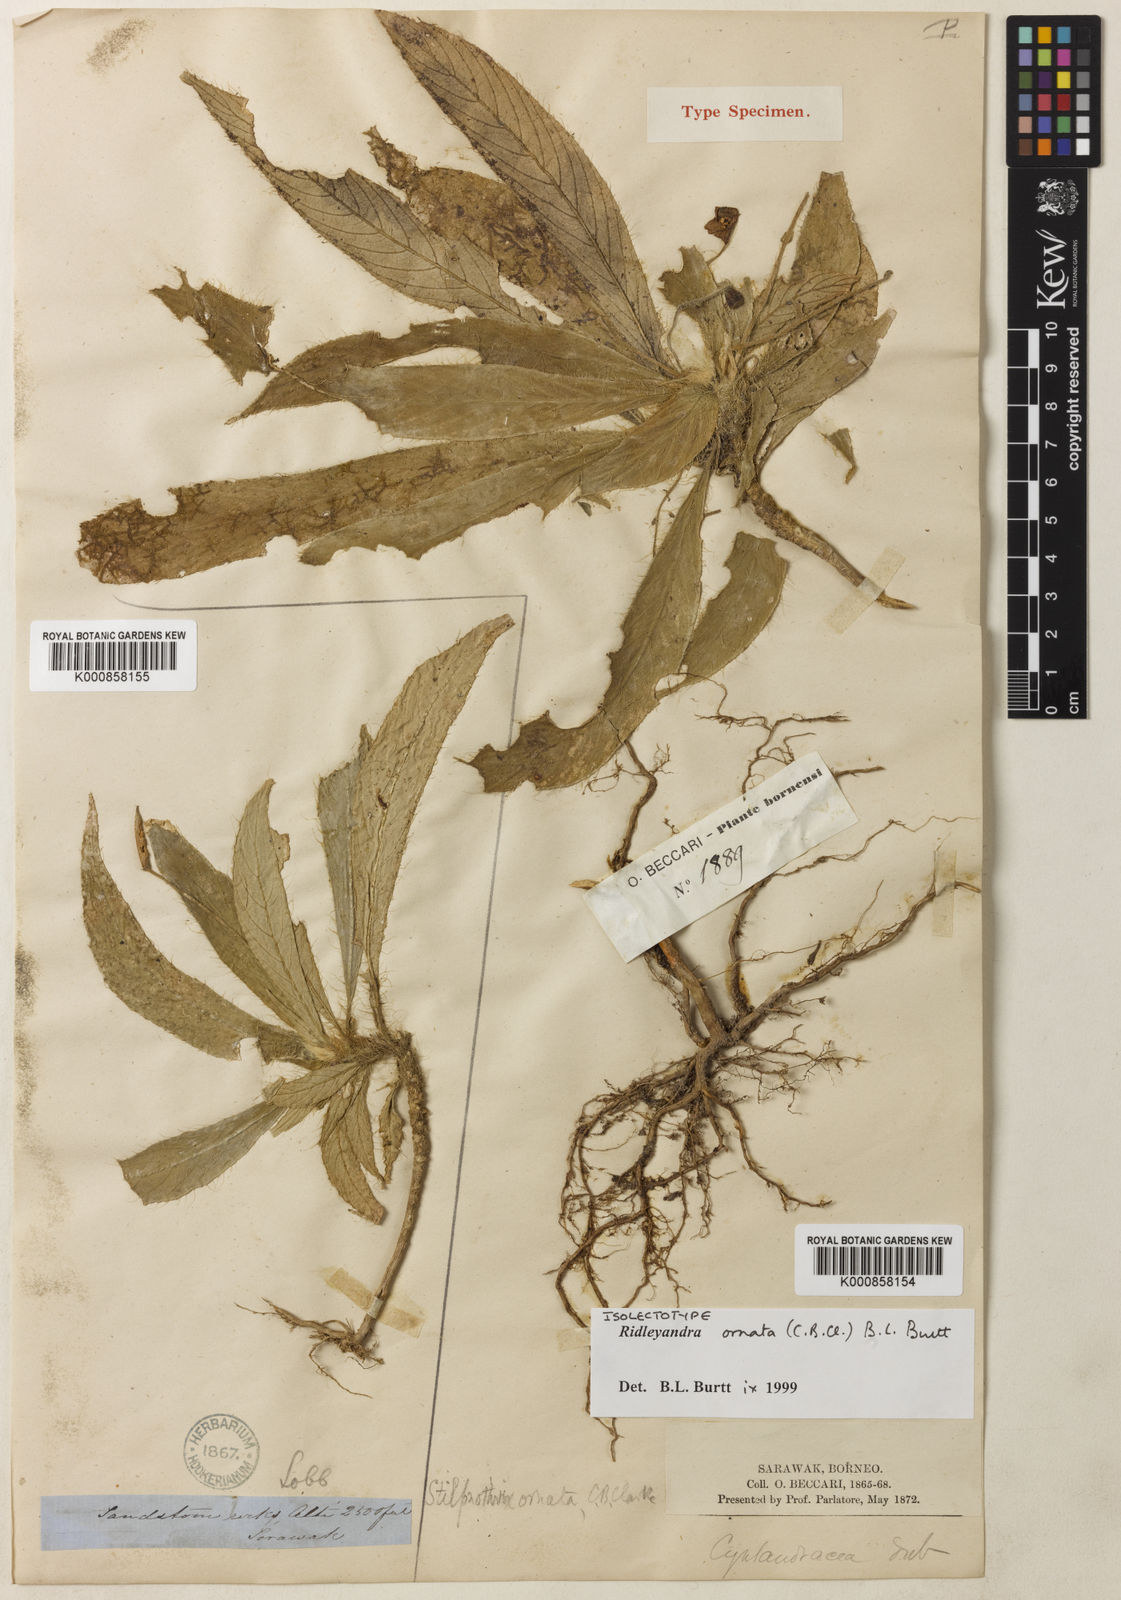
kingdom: Plantae
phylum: Tracheophyta
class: Magnoliopsida
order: Lamiales
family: Gesneriaceae
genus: Ridleyandra
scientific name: Ridleyandra ornata
